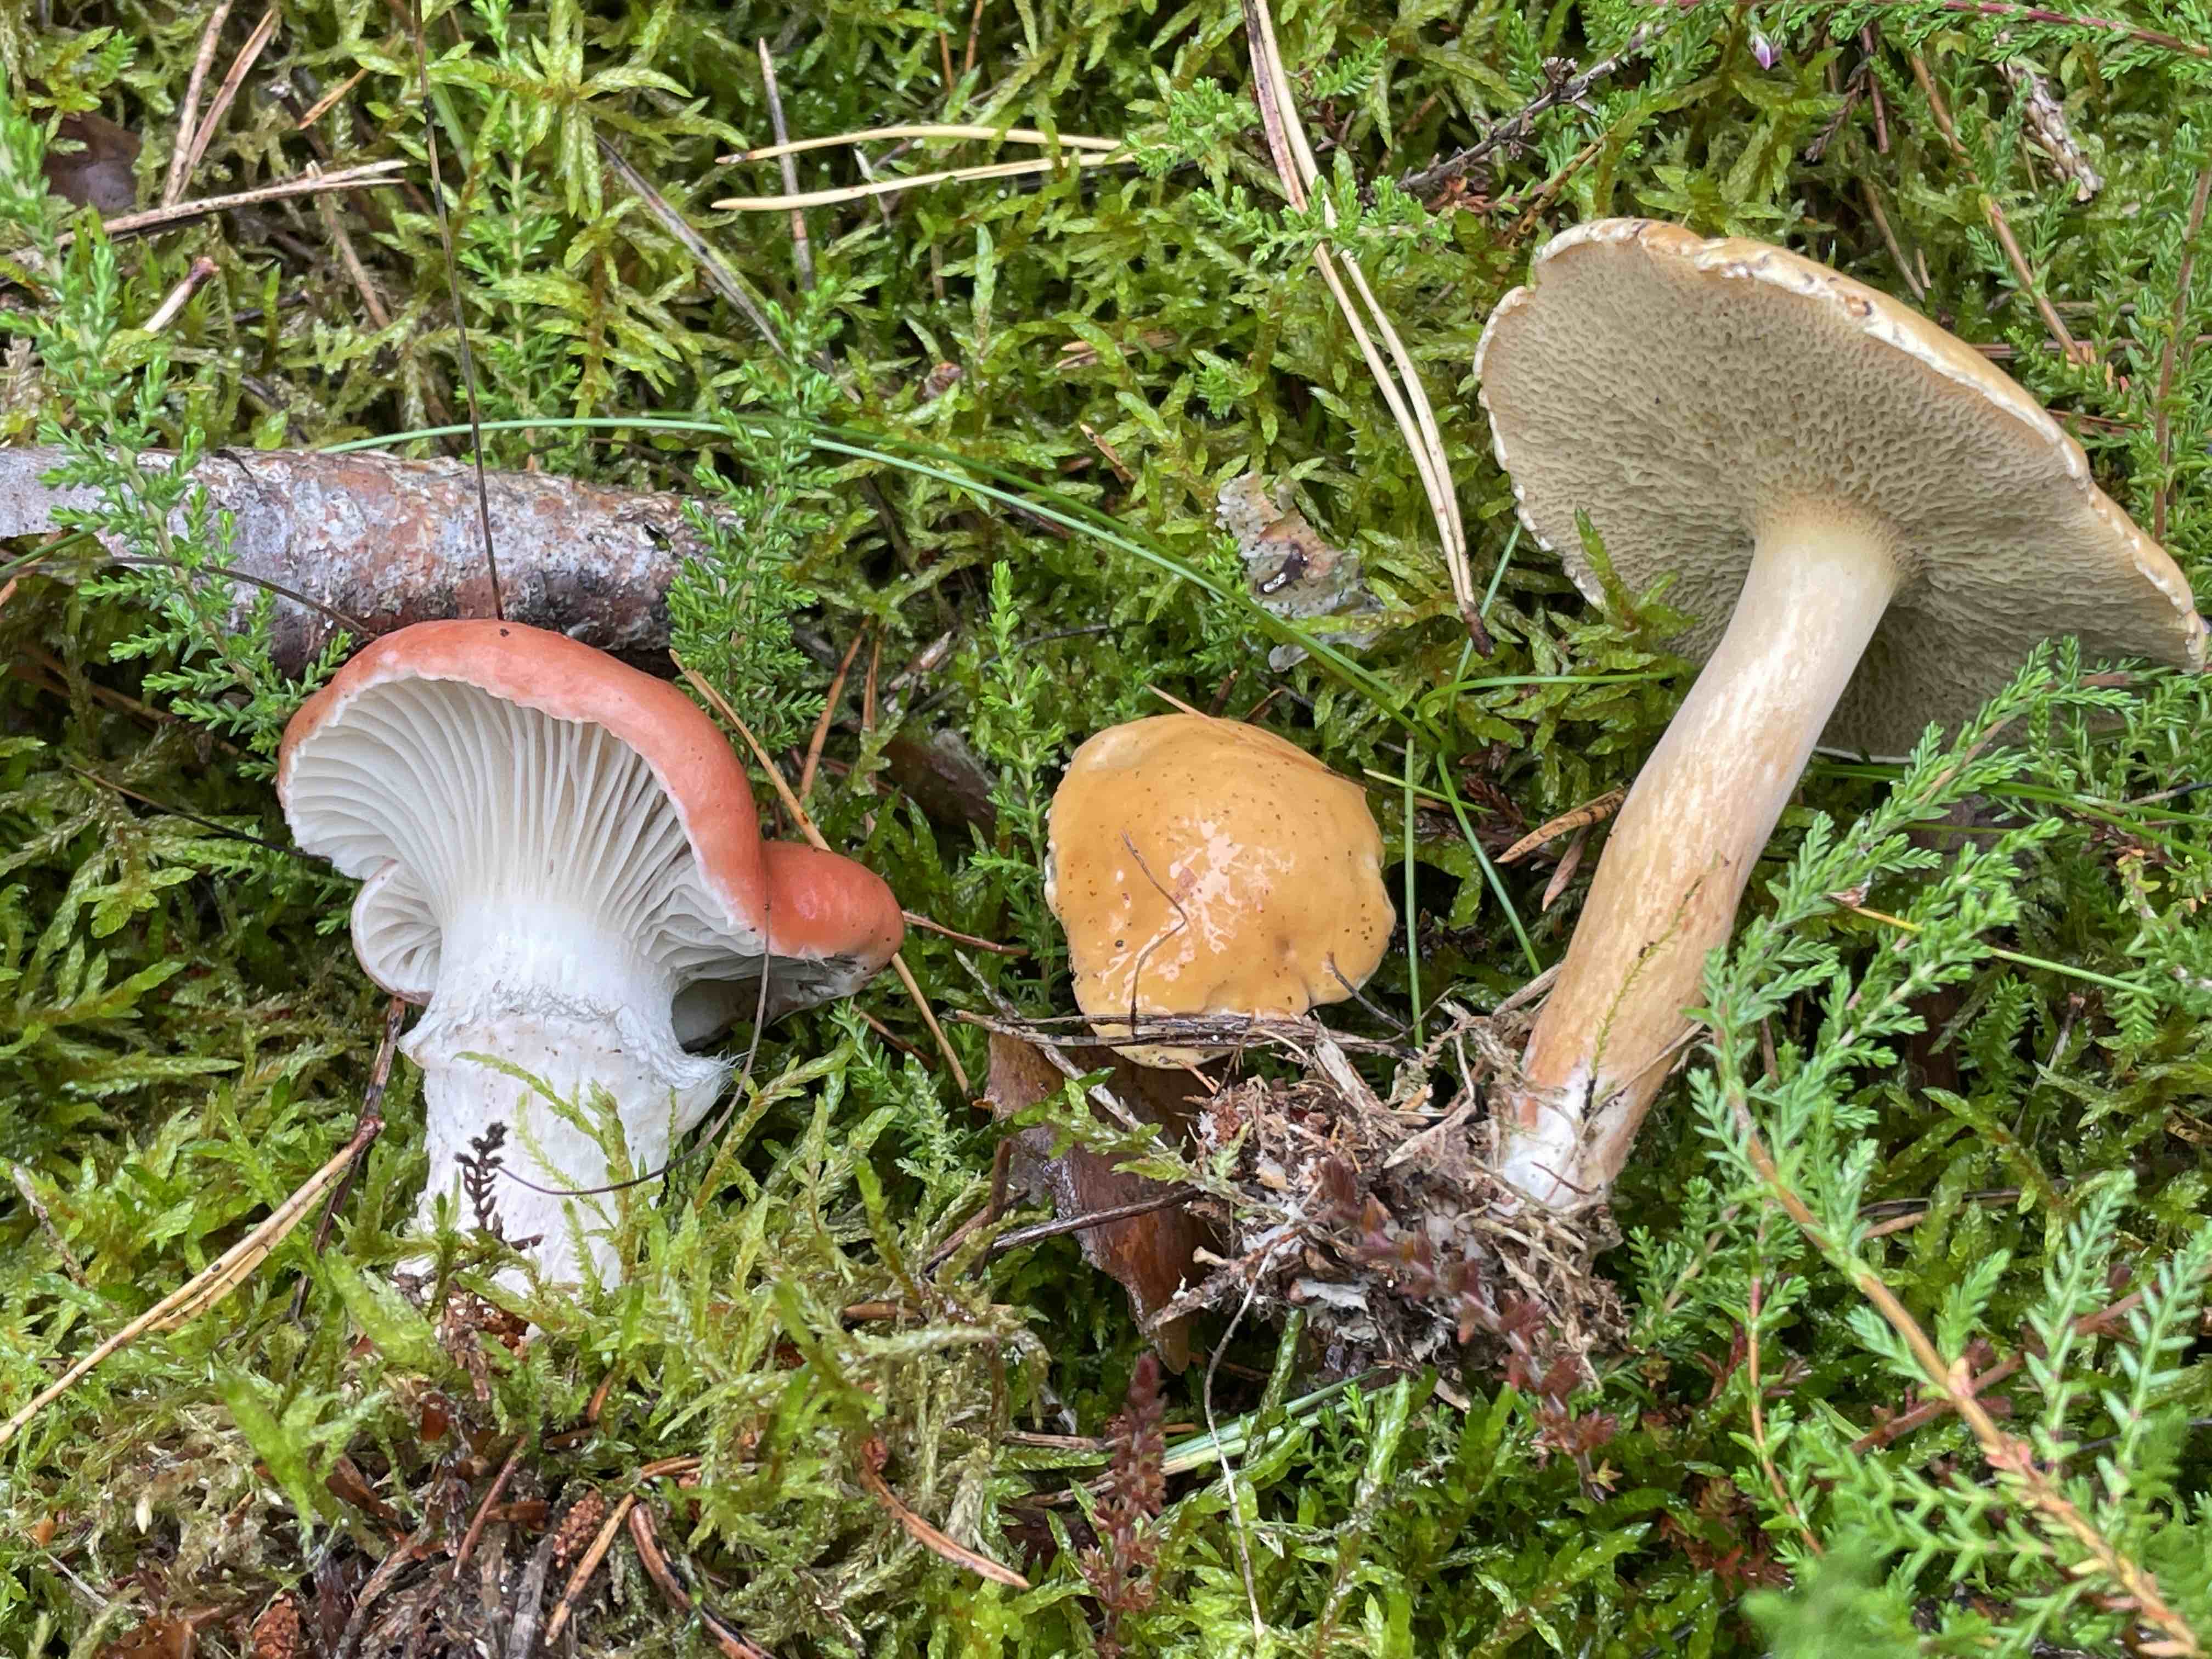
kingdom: Fungi
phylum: Basidiomycota
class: Agaricomycetes
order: Boletales
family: Gomphidiaceae
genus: Gomphidius
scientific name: Gomphidius roseus
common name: rosenrød slimslør
